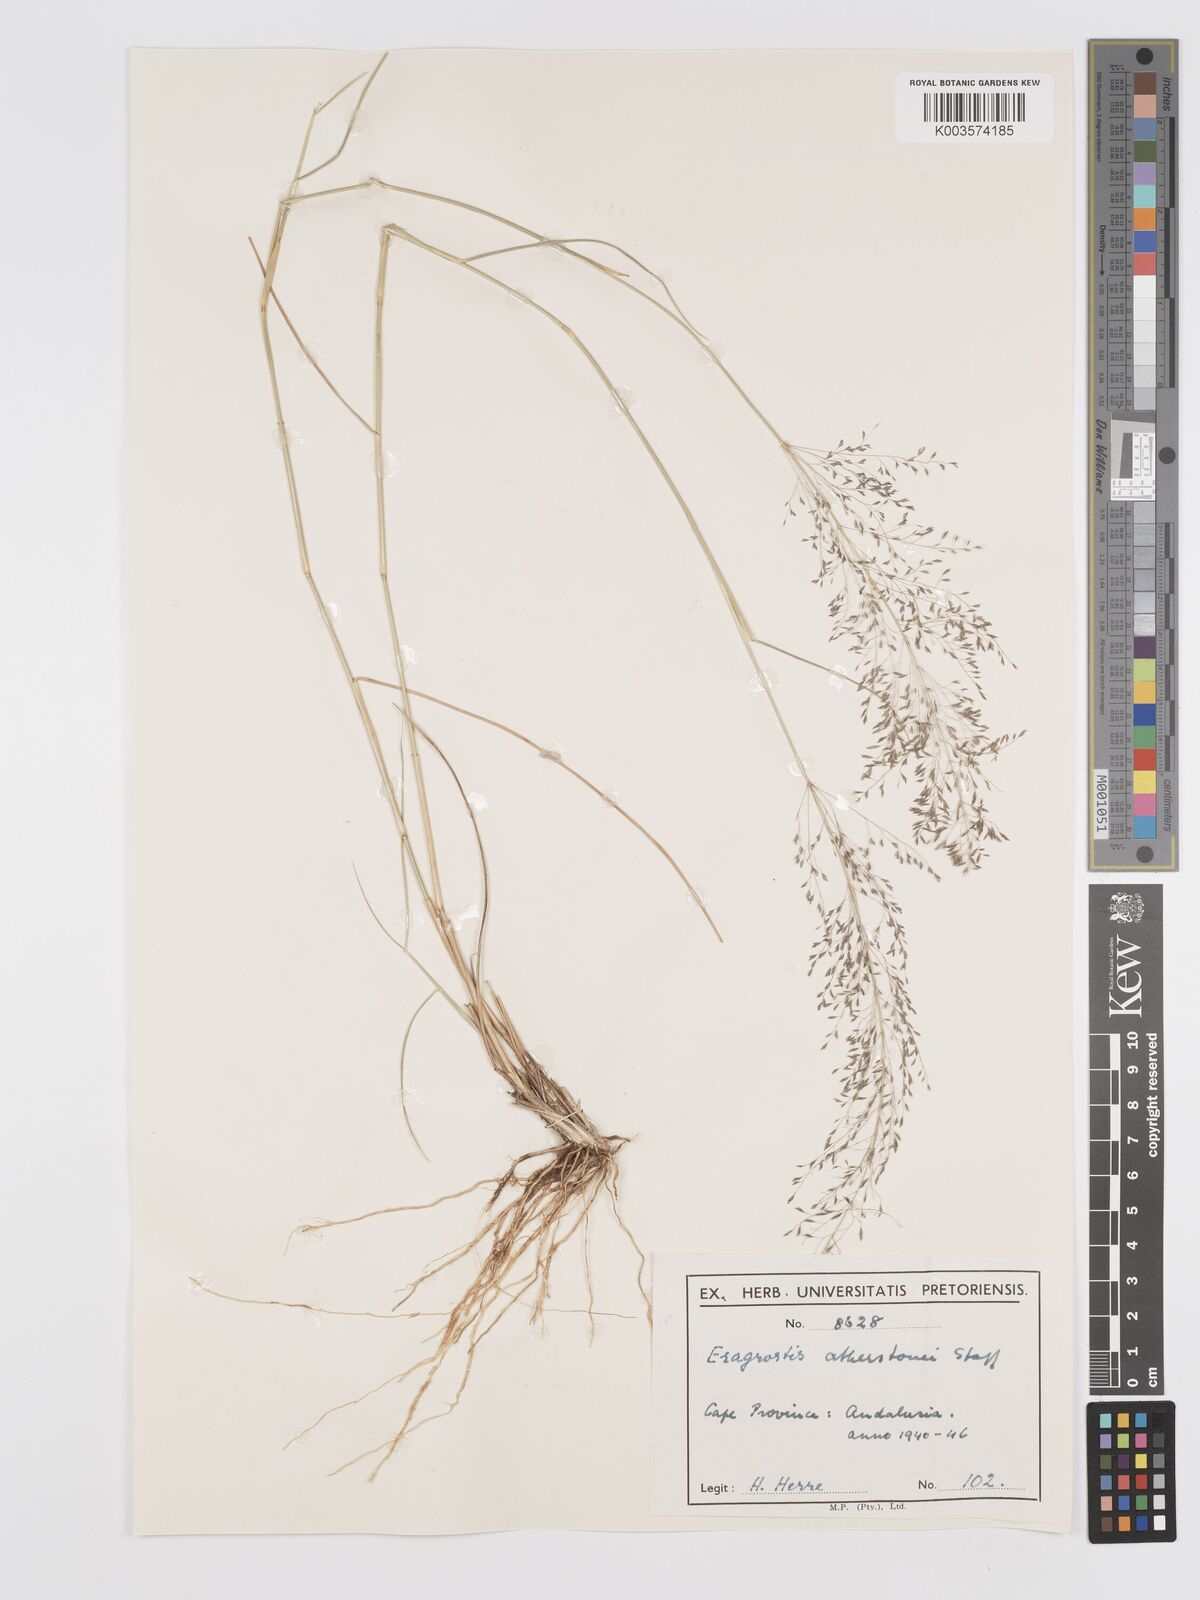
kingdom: Plantae
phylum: Tracheophyta
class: Liliopsida
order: Poales
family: Poaceae
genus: Eragrostis
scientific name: Eragrostis cylindriflora
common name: Cylinderflower lovegrass
